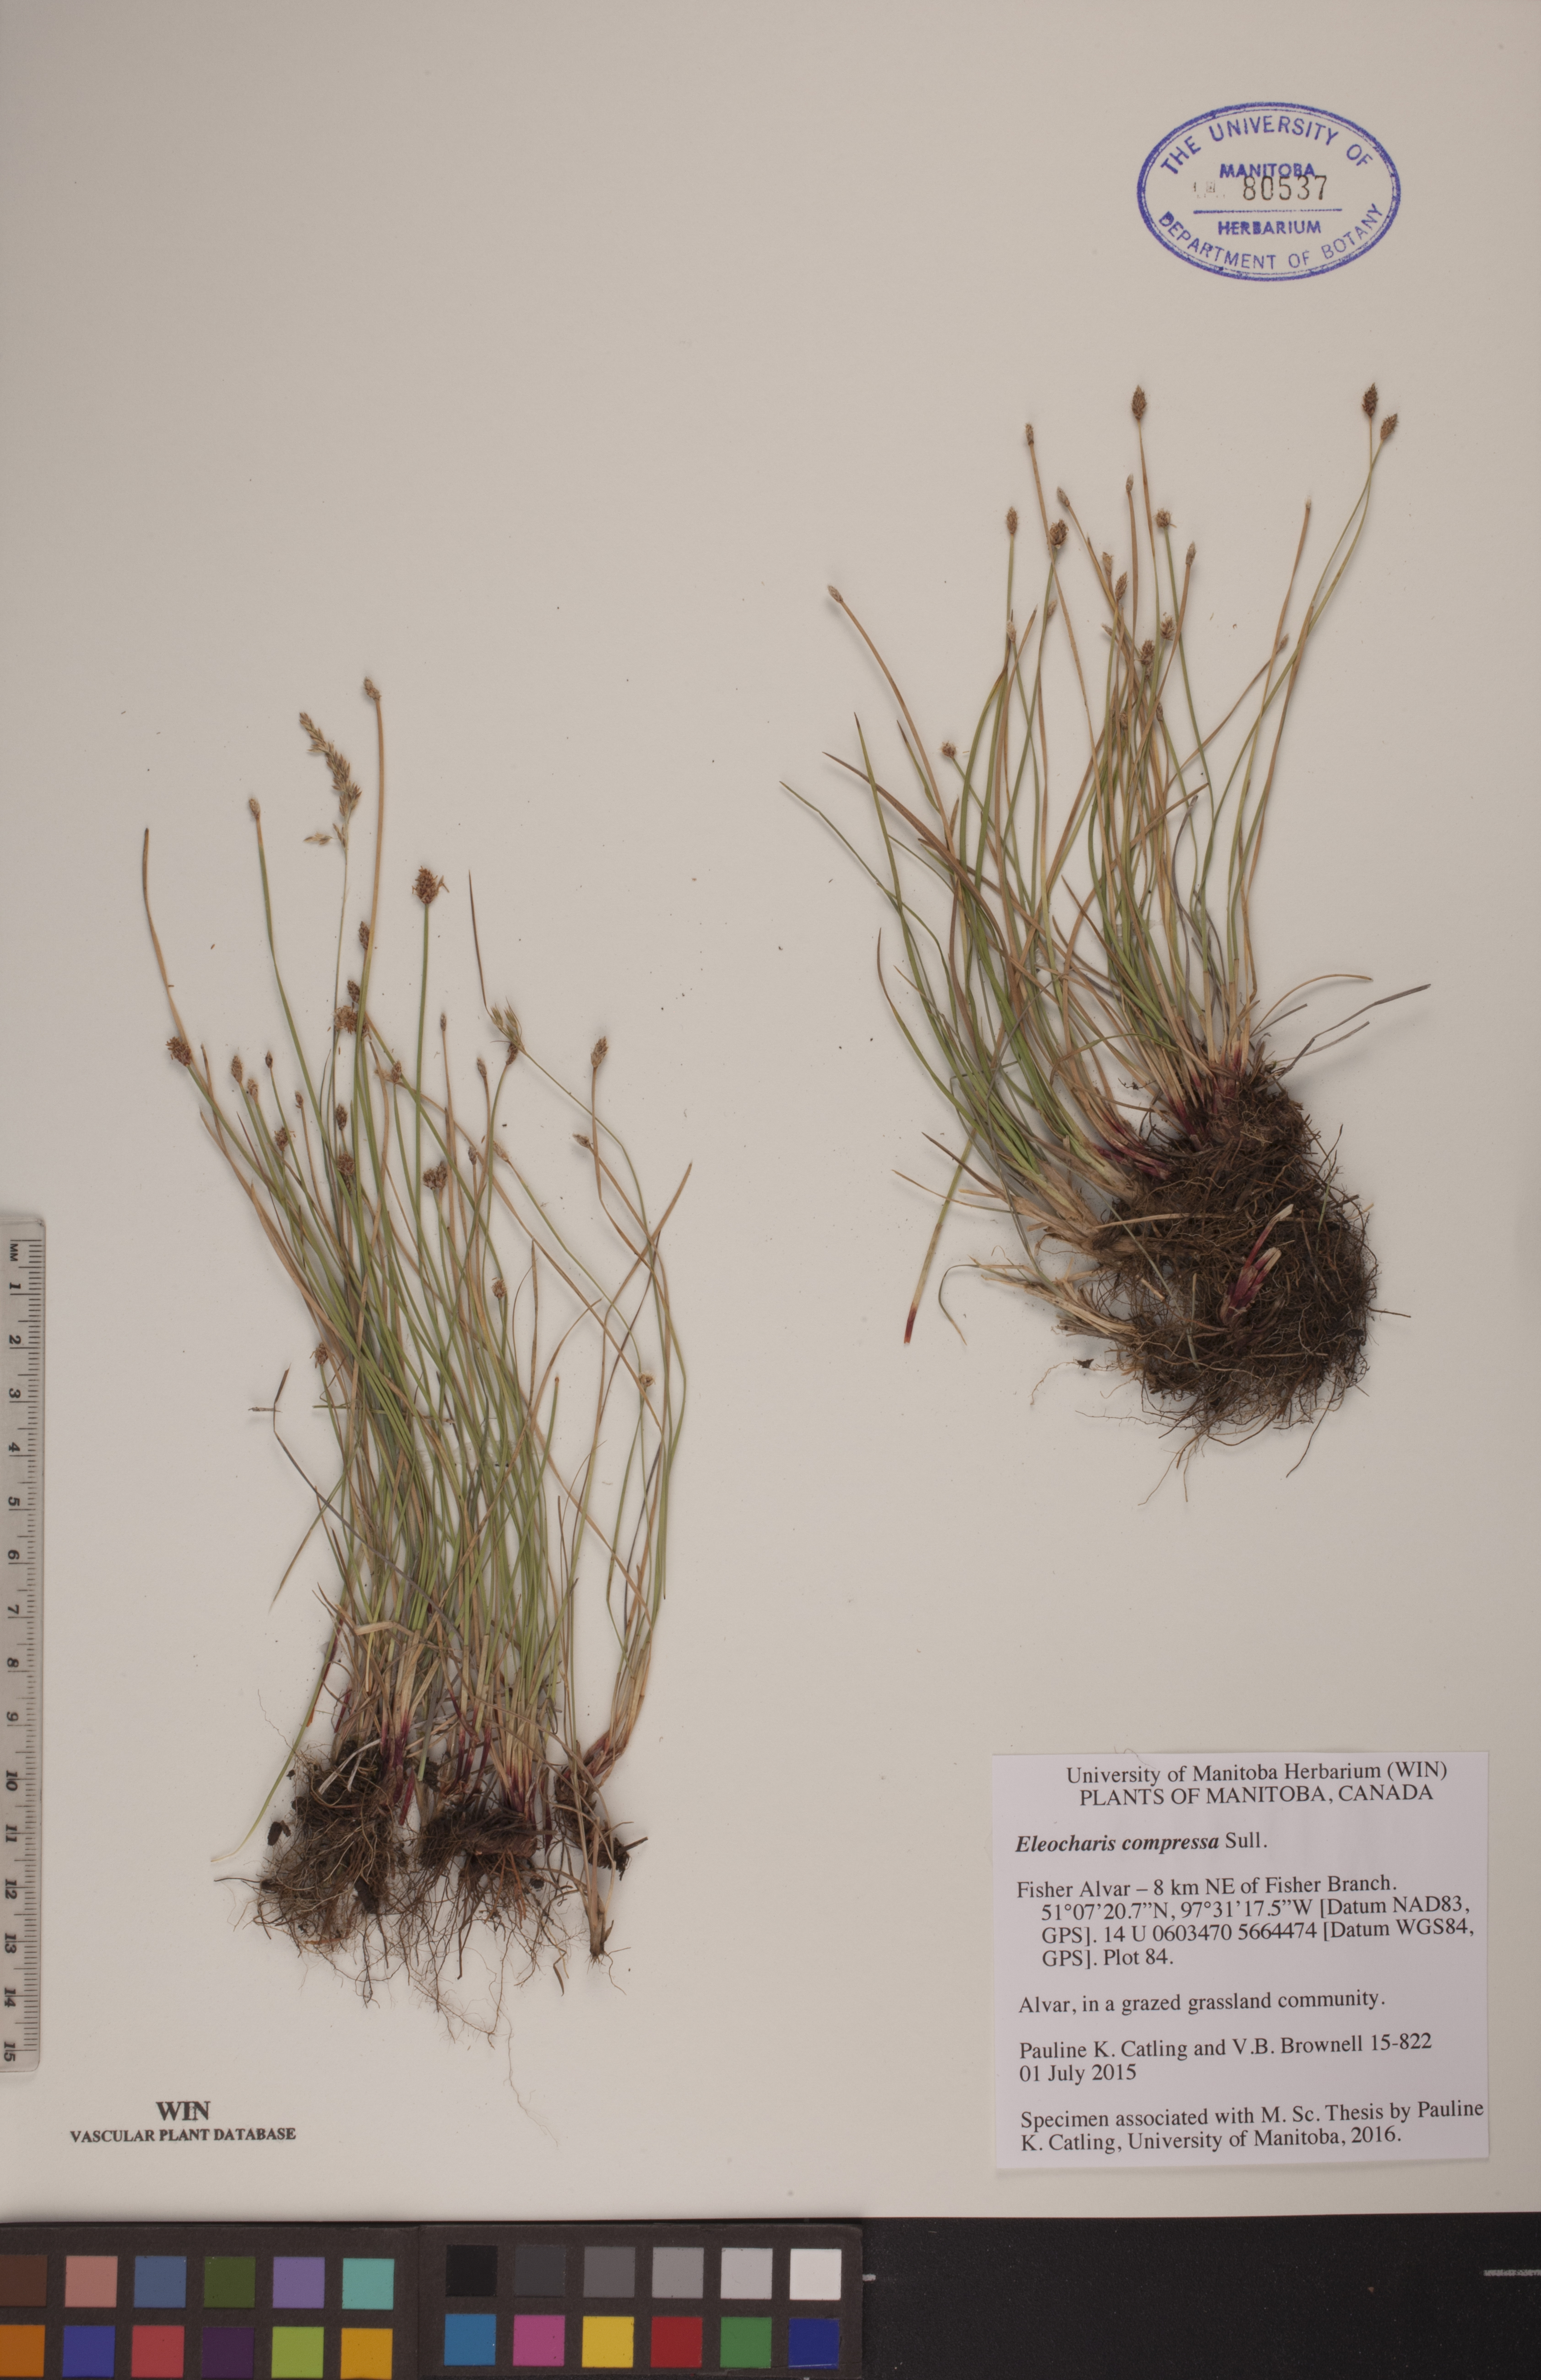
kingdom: Plantae
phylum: Tracheophyta
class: Liliopsida
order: Poales
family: Cyperaceae
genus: Eleocharis
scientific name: Eleocharis compressa
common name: Flat-stem spike-rush
